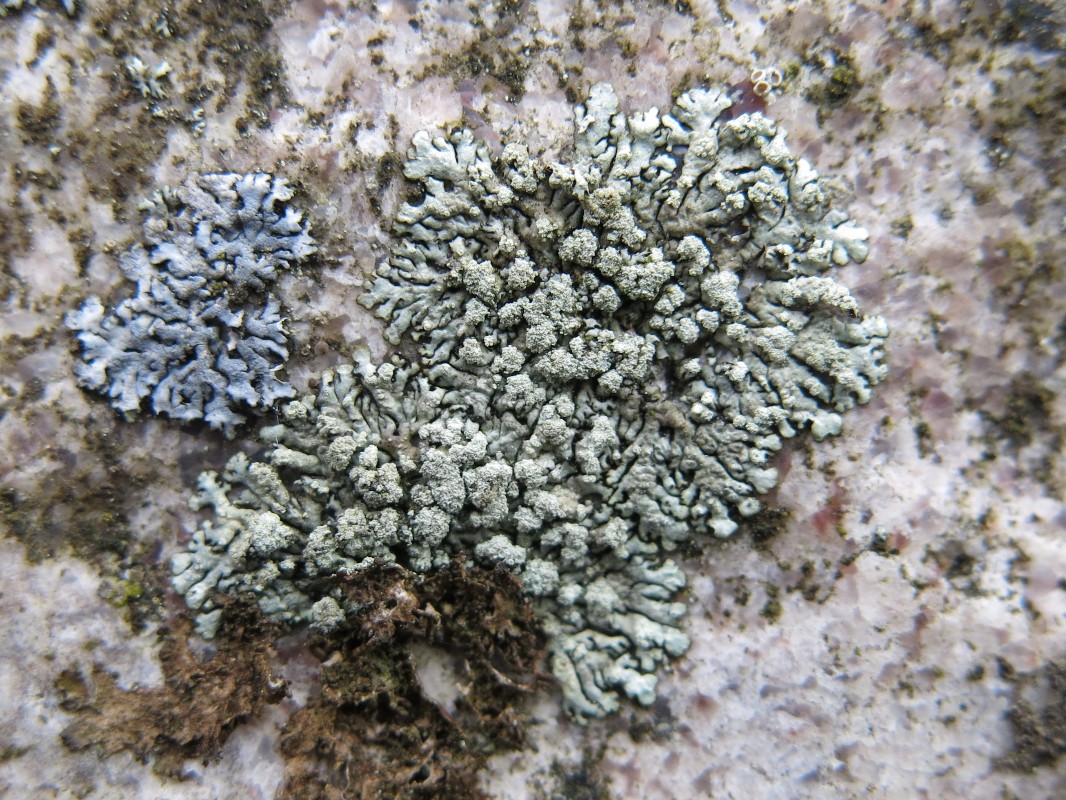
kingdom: Fungi
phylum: Ascomycota
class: Lecanoromycetes
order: Lecanorales
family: Parmeliaceae
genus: Xanthoparmelia
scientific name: Xanthoparmelia mougeotii
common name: liden skållav
